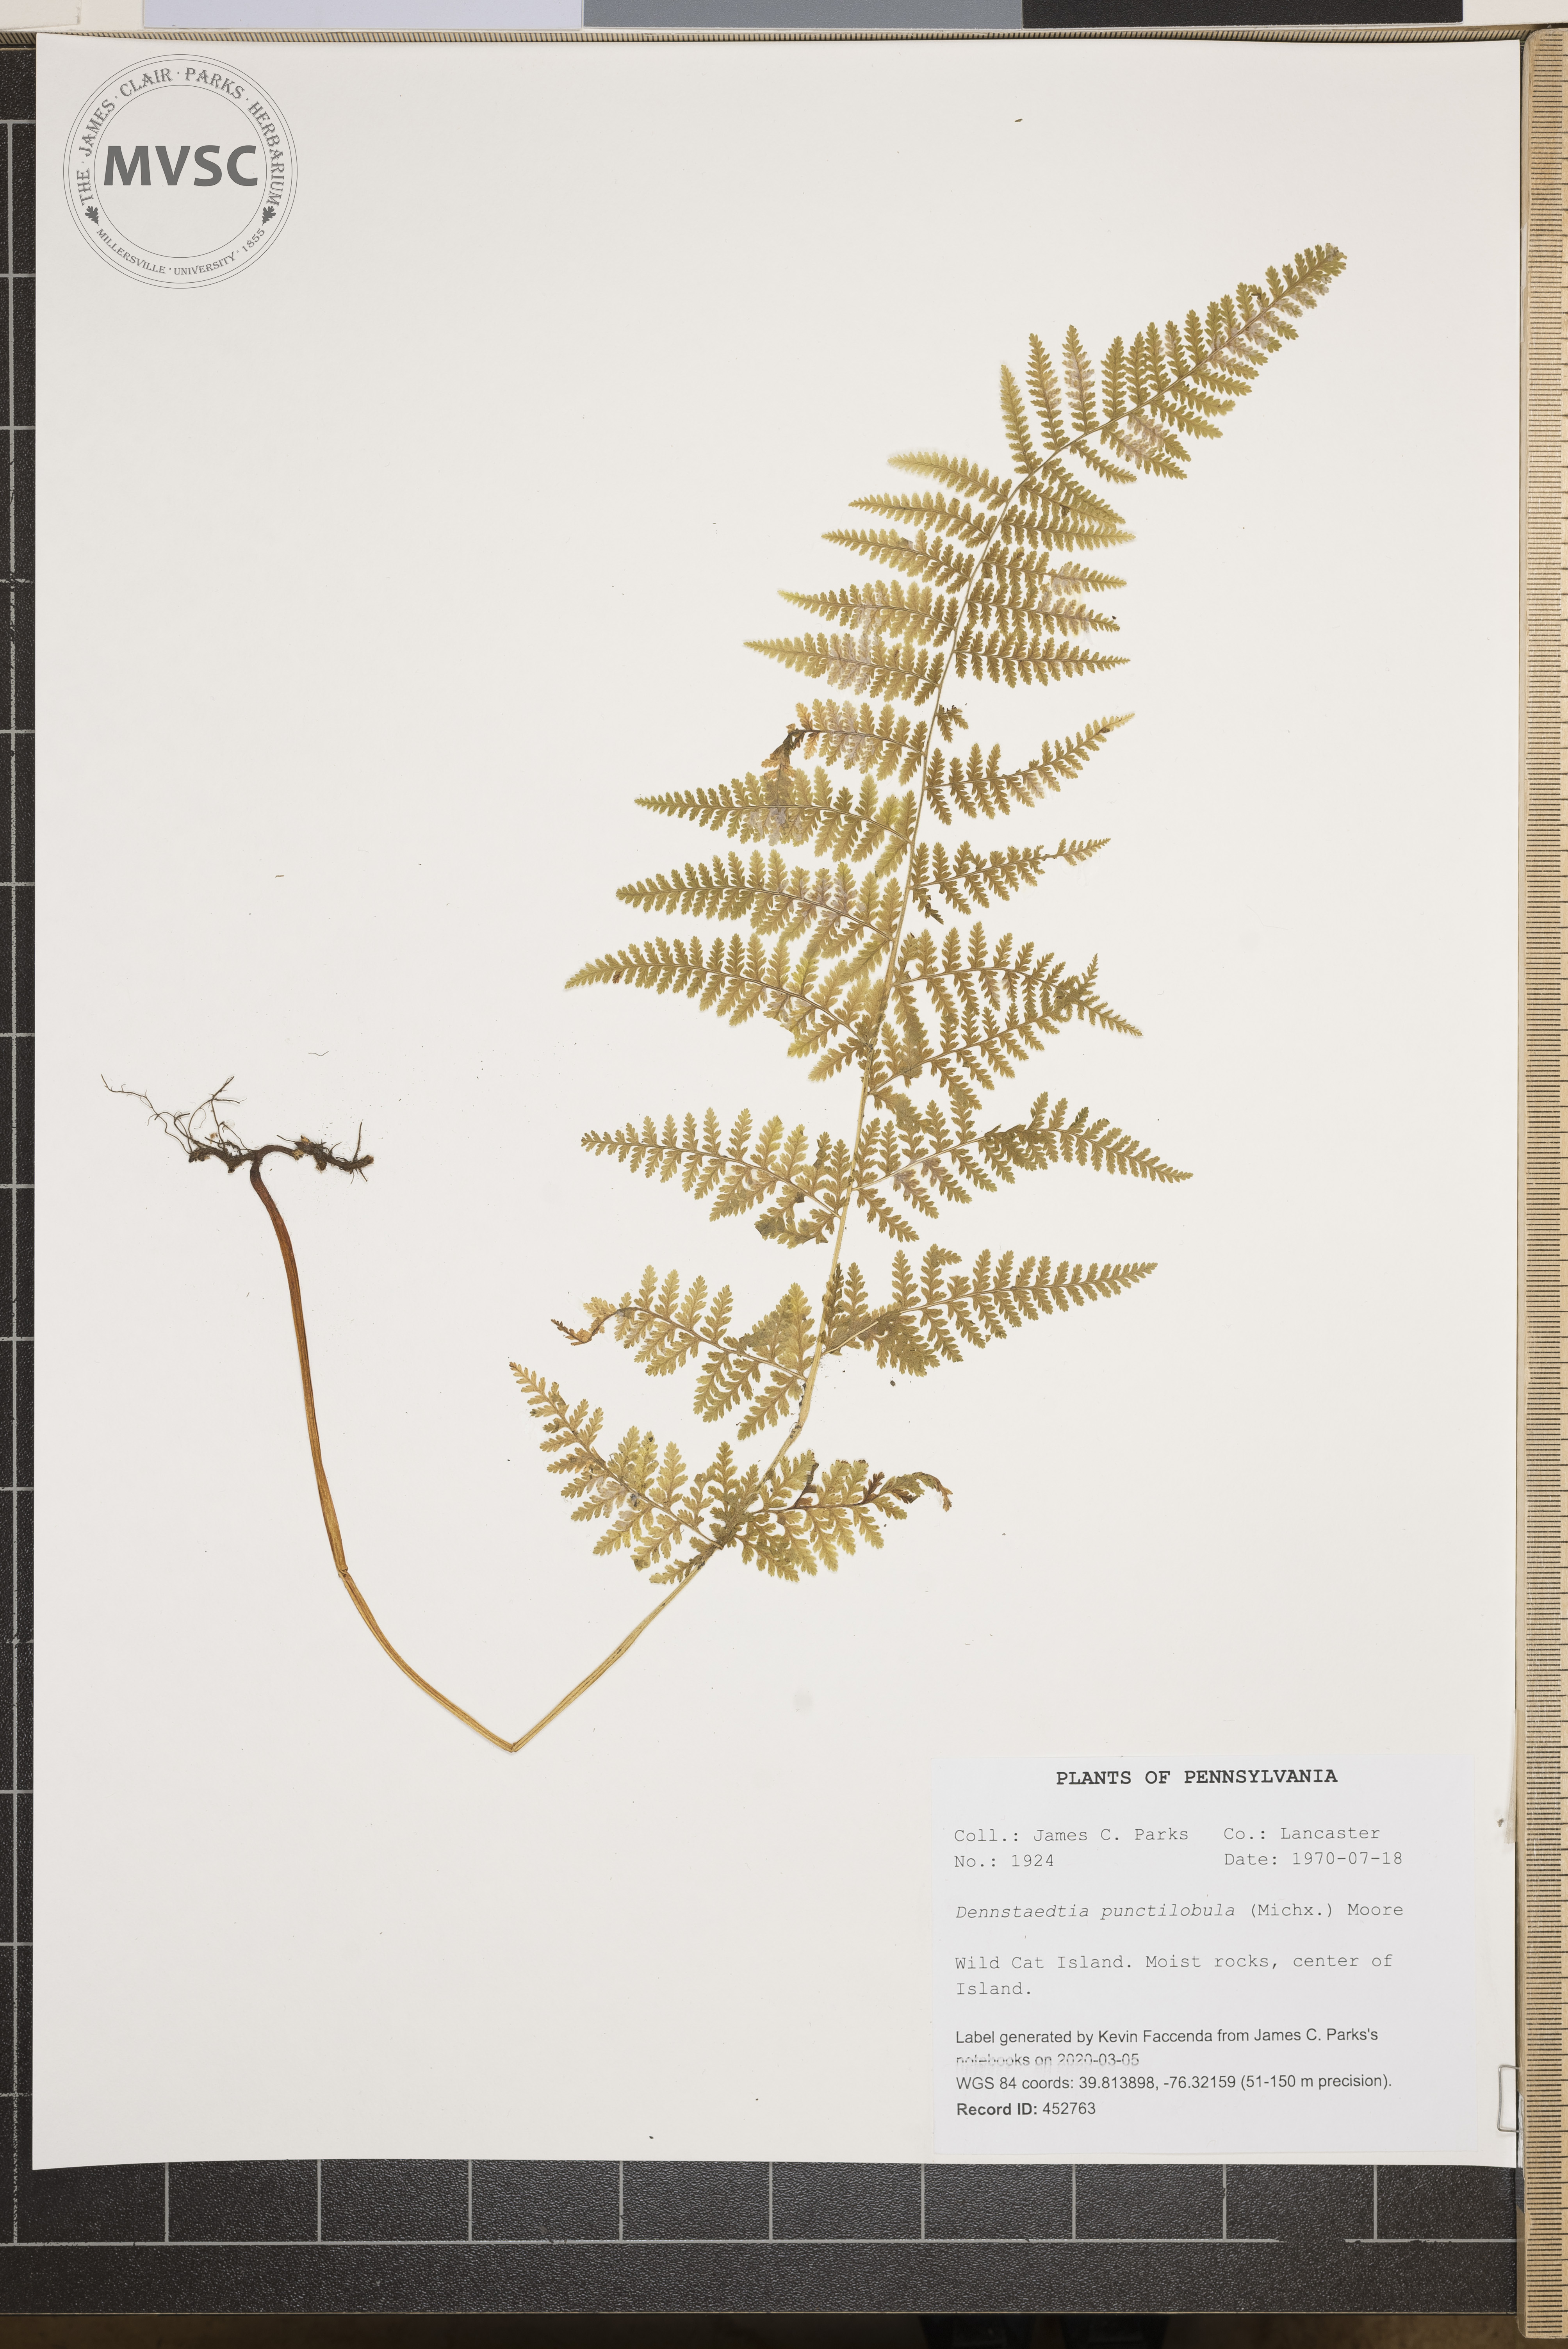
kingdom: Plantae
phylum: Tracheophyta
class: Polypodiopsida
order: Polypodiales
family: Dennstaedtiaceae
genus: Sitobolium
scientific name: Sitobolium punctilobum
